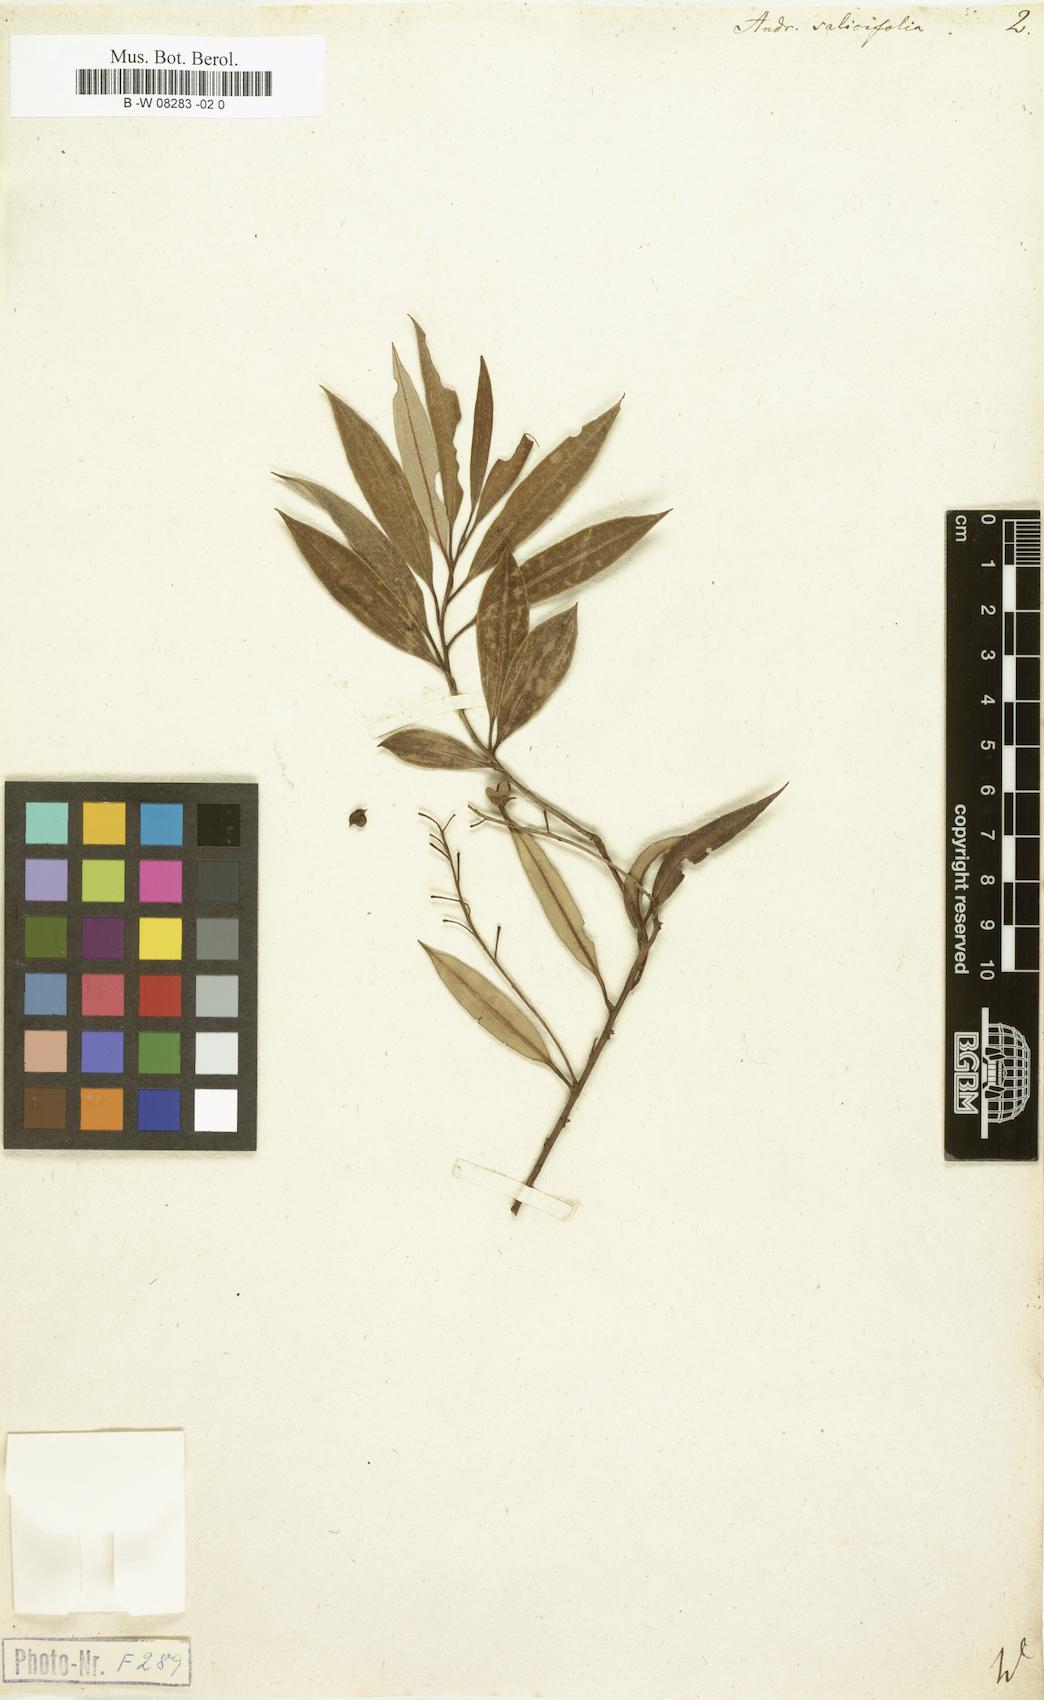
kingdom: Plantae
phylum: Tracheophyta
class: Magnoliopsida
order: Ericales
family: Ericaceae
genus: Agarista
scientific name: Agarista salicifolia
